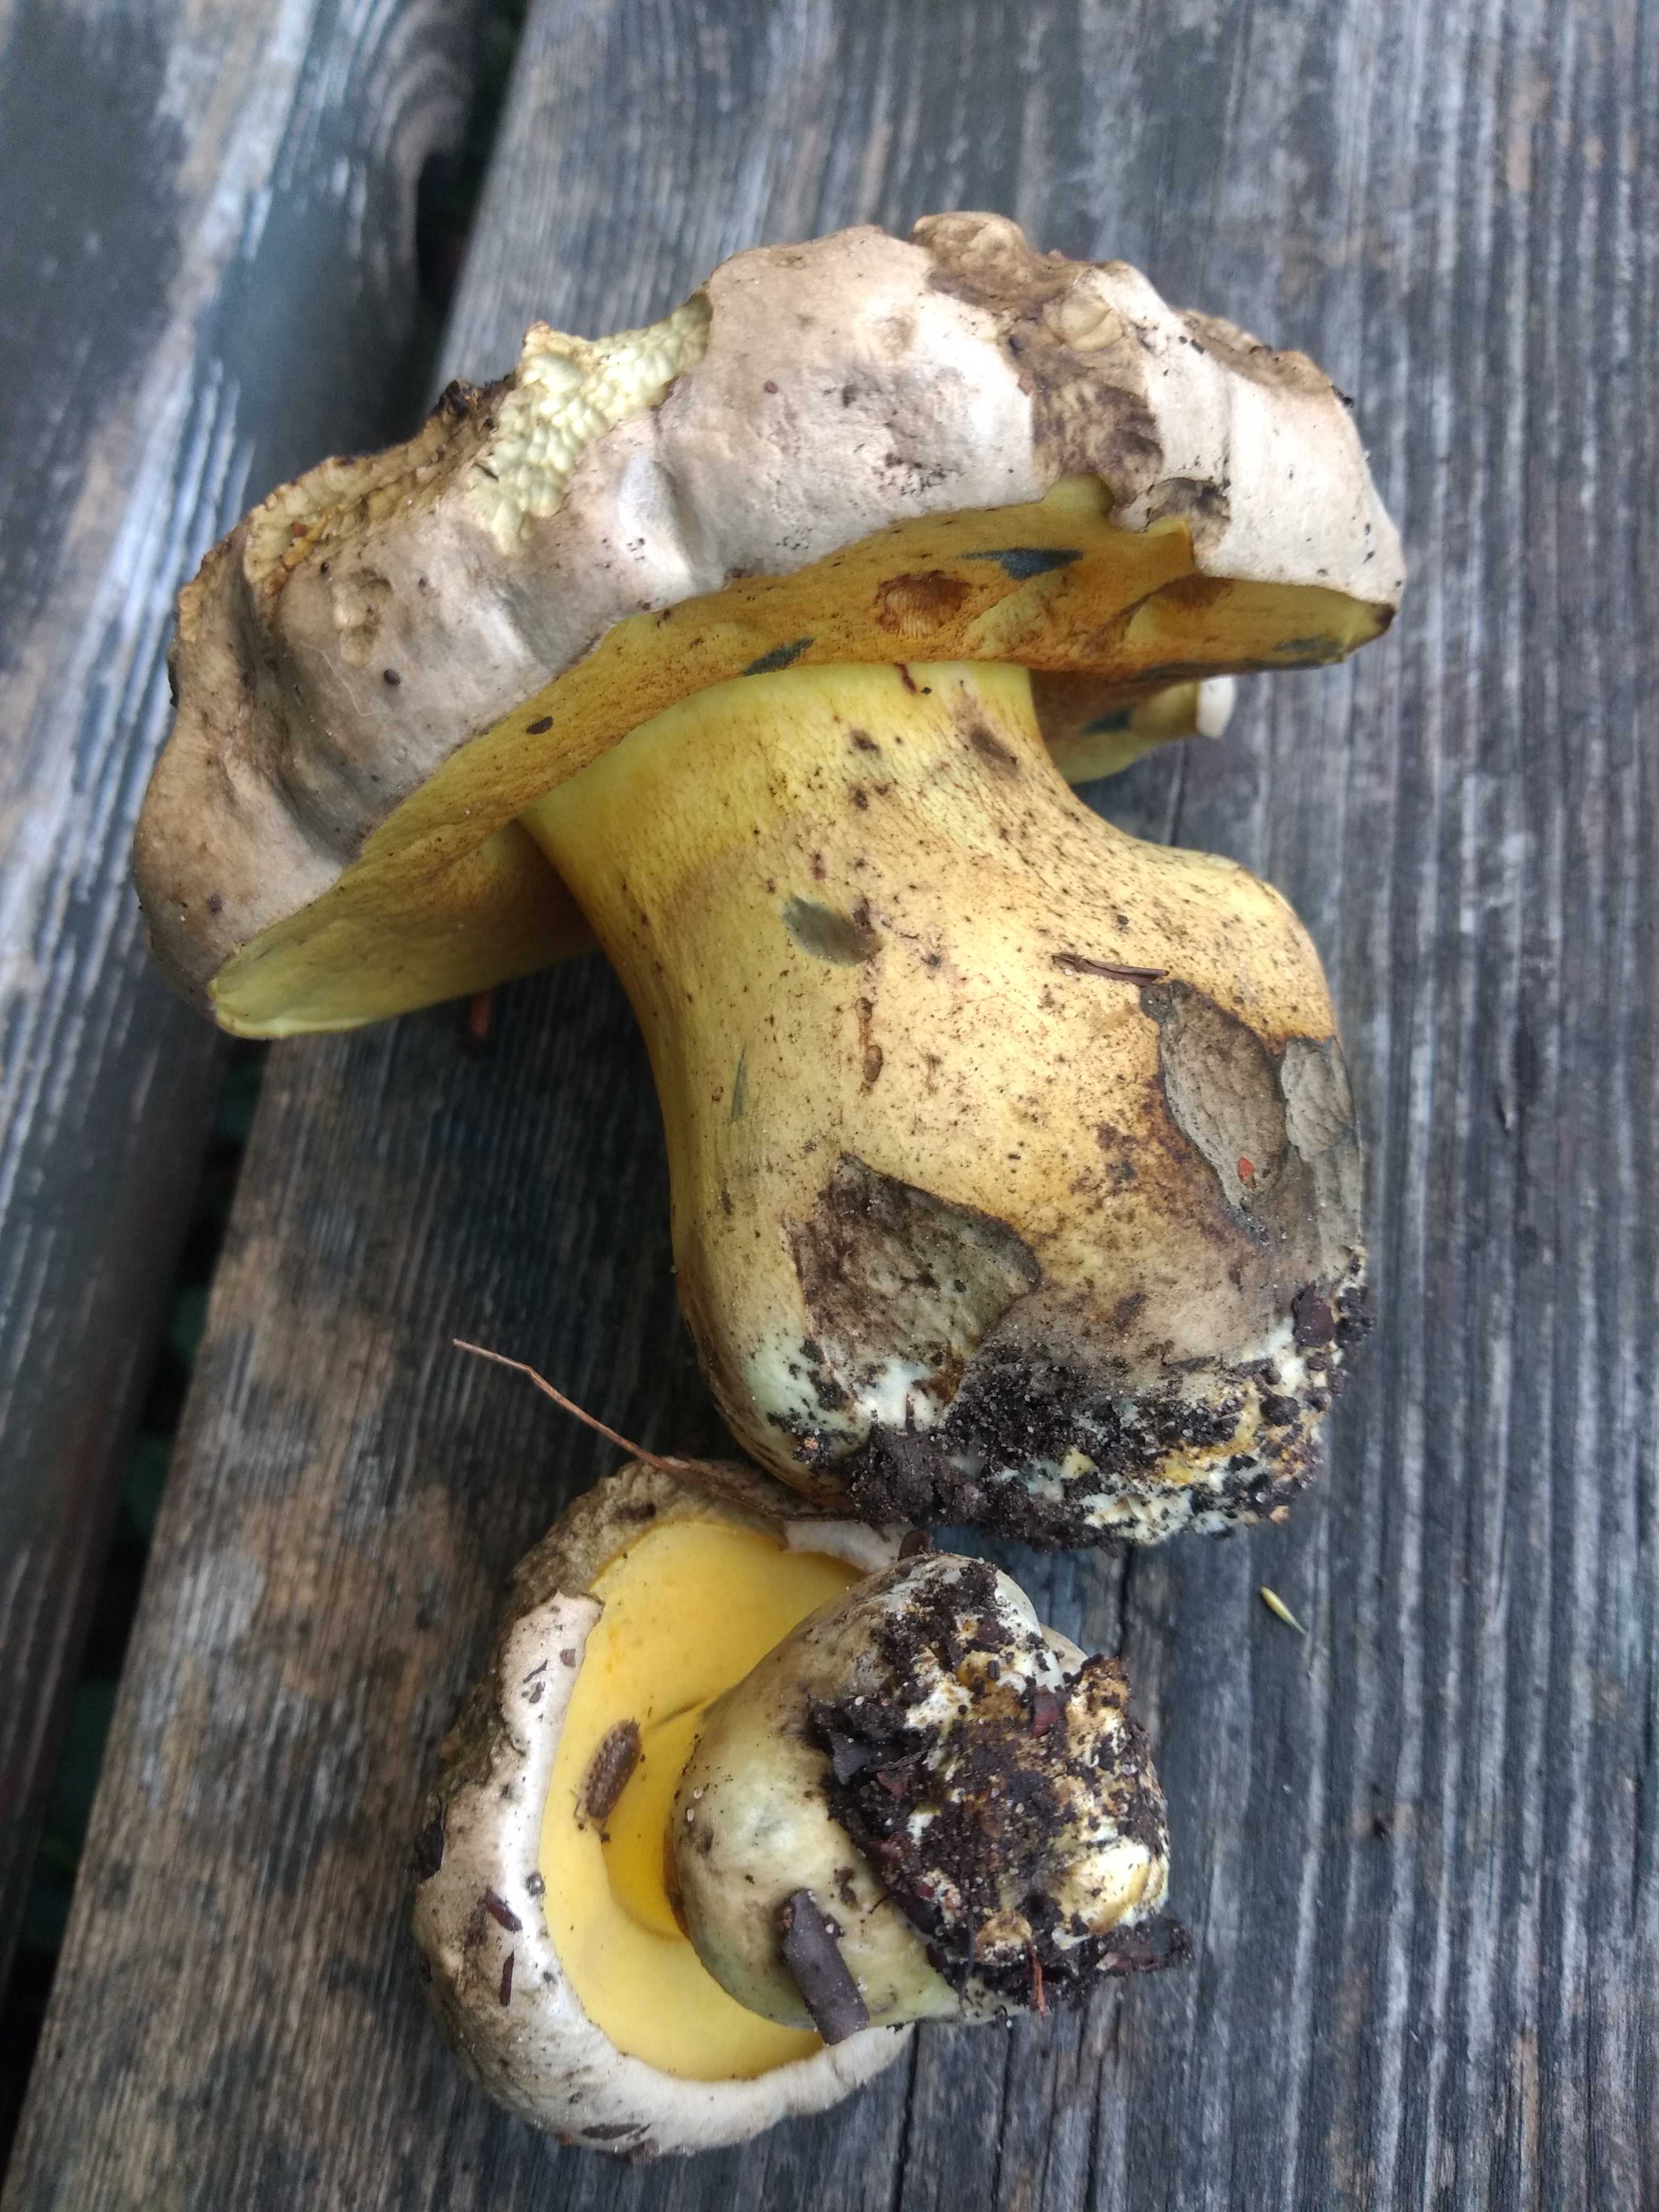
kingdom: Fungi
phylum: Basidiomycota
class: Agaricomycetes
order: Boletales
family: Boletaceae
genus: Caloboletus
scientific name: Caloboletus radicans
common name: rod-rørhat
